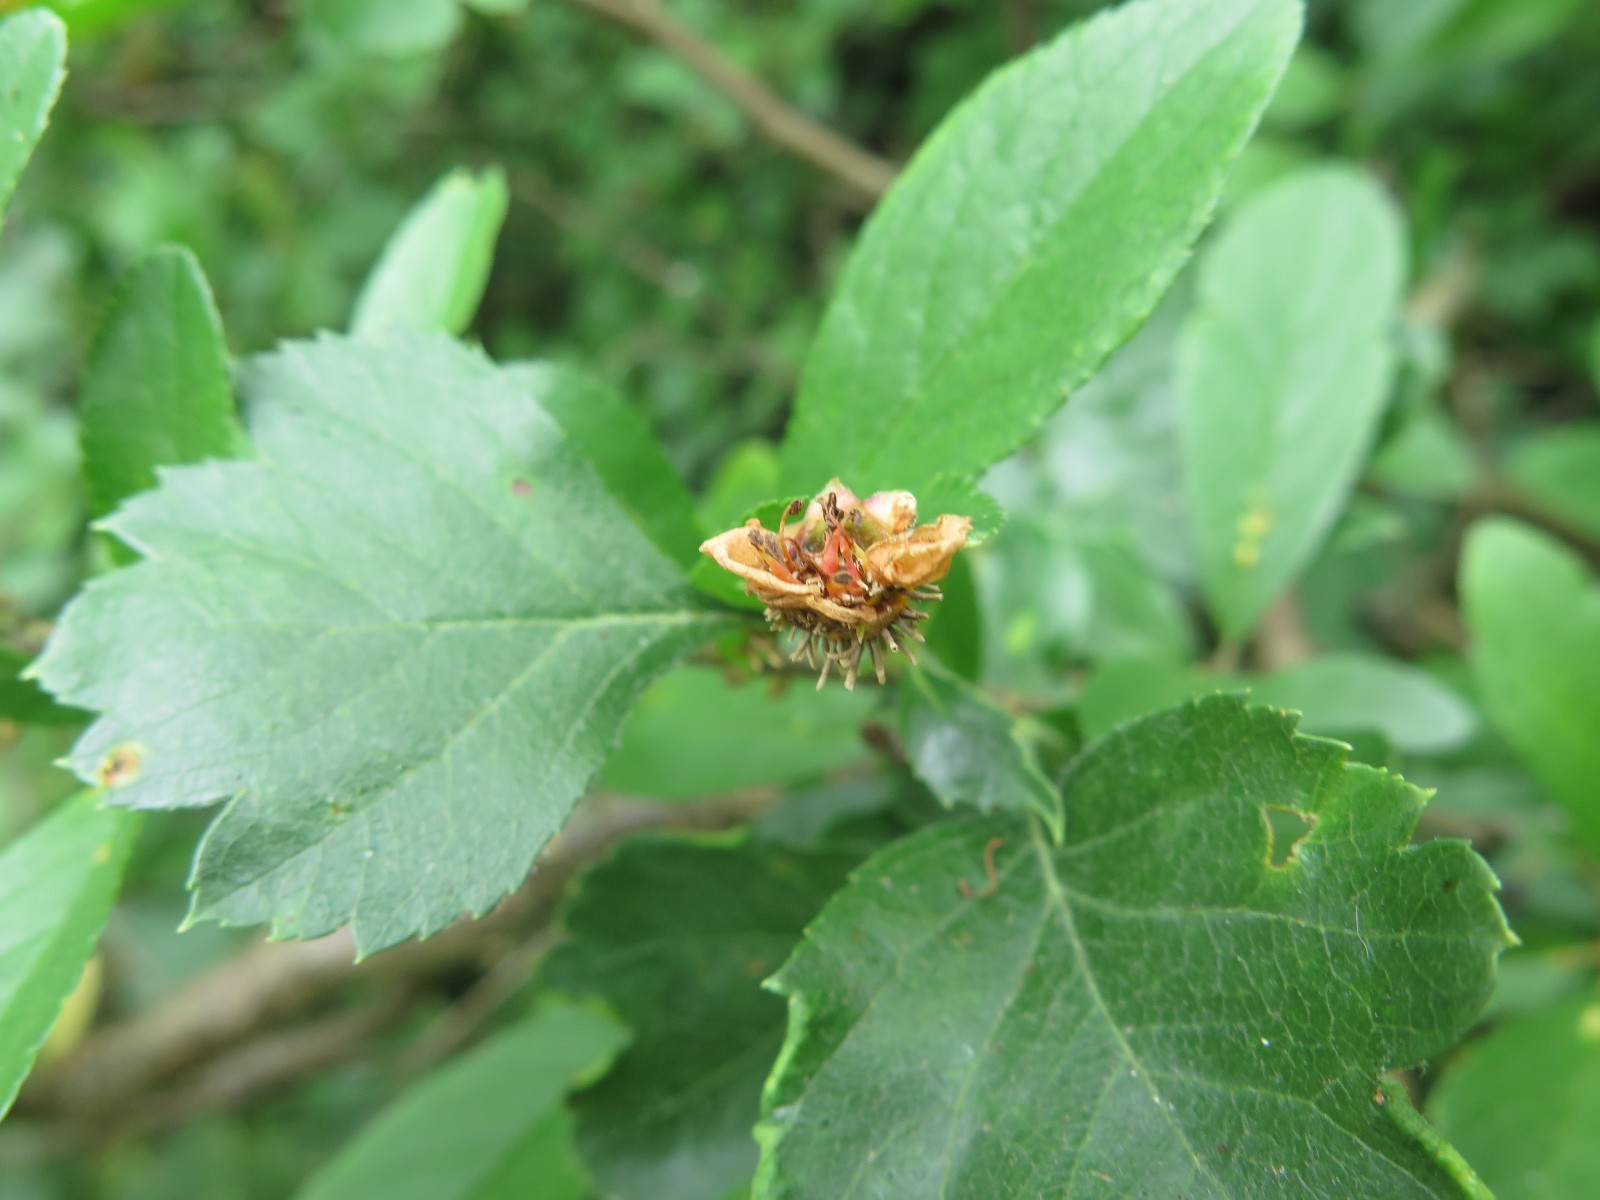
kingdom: Fungi
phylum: Basidiomycota
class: Pucciniomycetes
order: Pucciniales
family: Gymnosporangiaceae
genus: Gymnosporangium
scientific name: Gymnosporangium confusum
